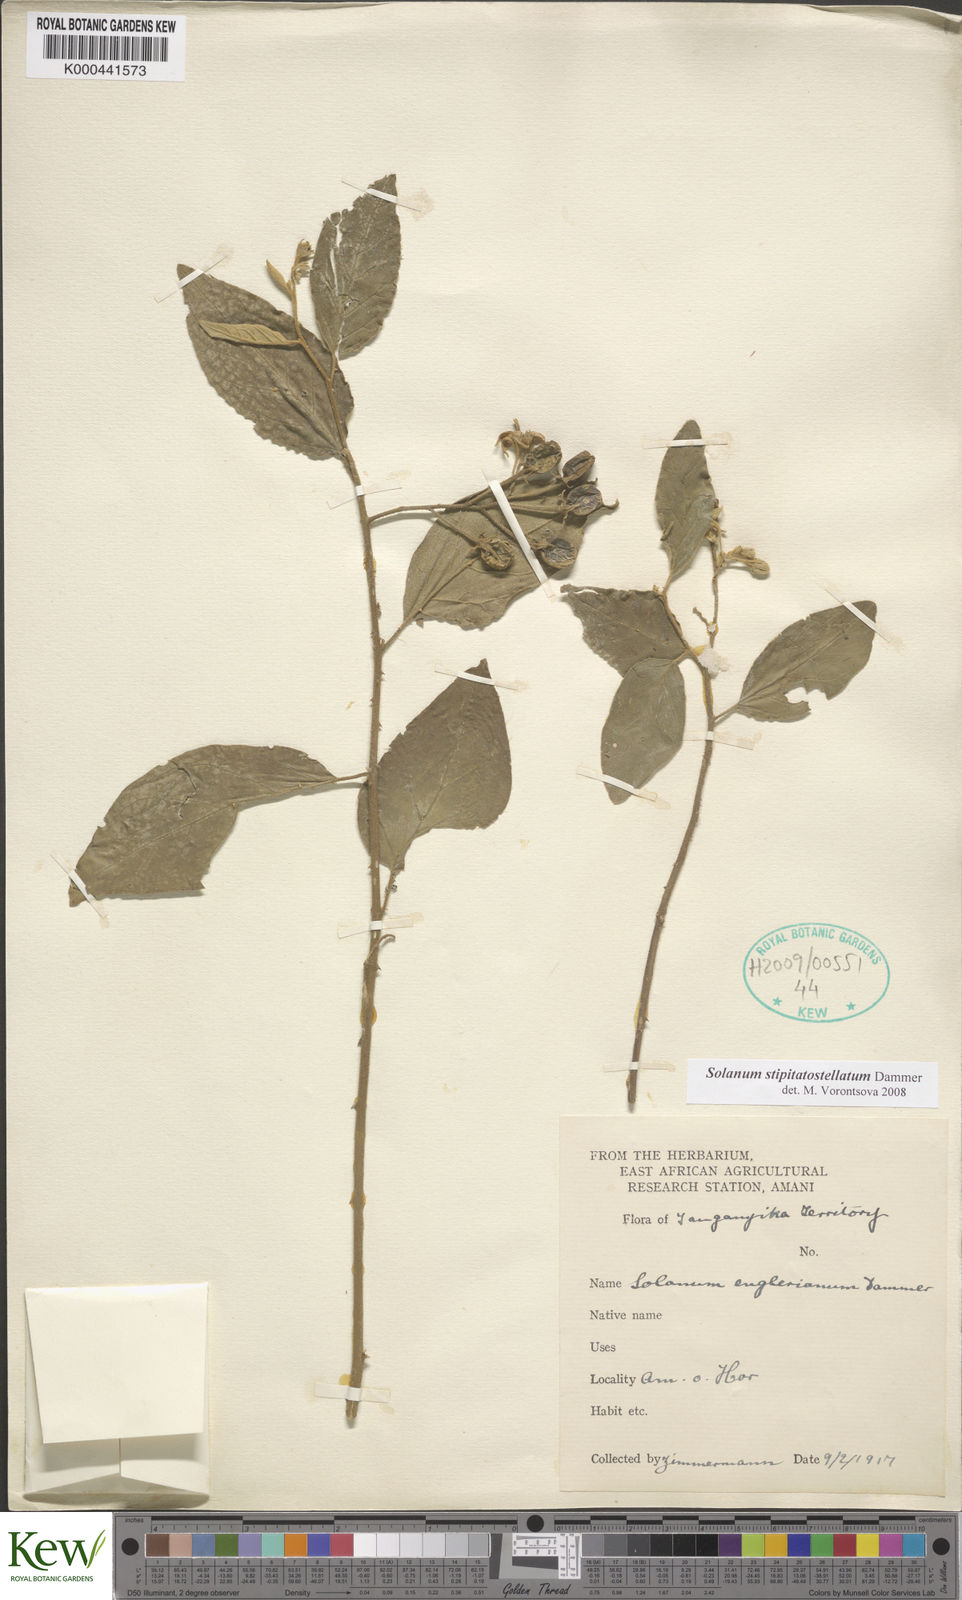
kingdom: Plantae
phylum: Tracheophyta
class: Magnoliopsida
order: Solanales
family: Solanaceae
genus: Solanum
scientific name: Solanum stipitatostellatum
